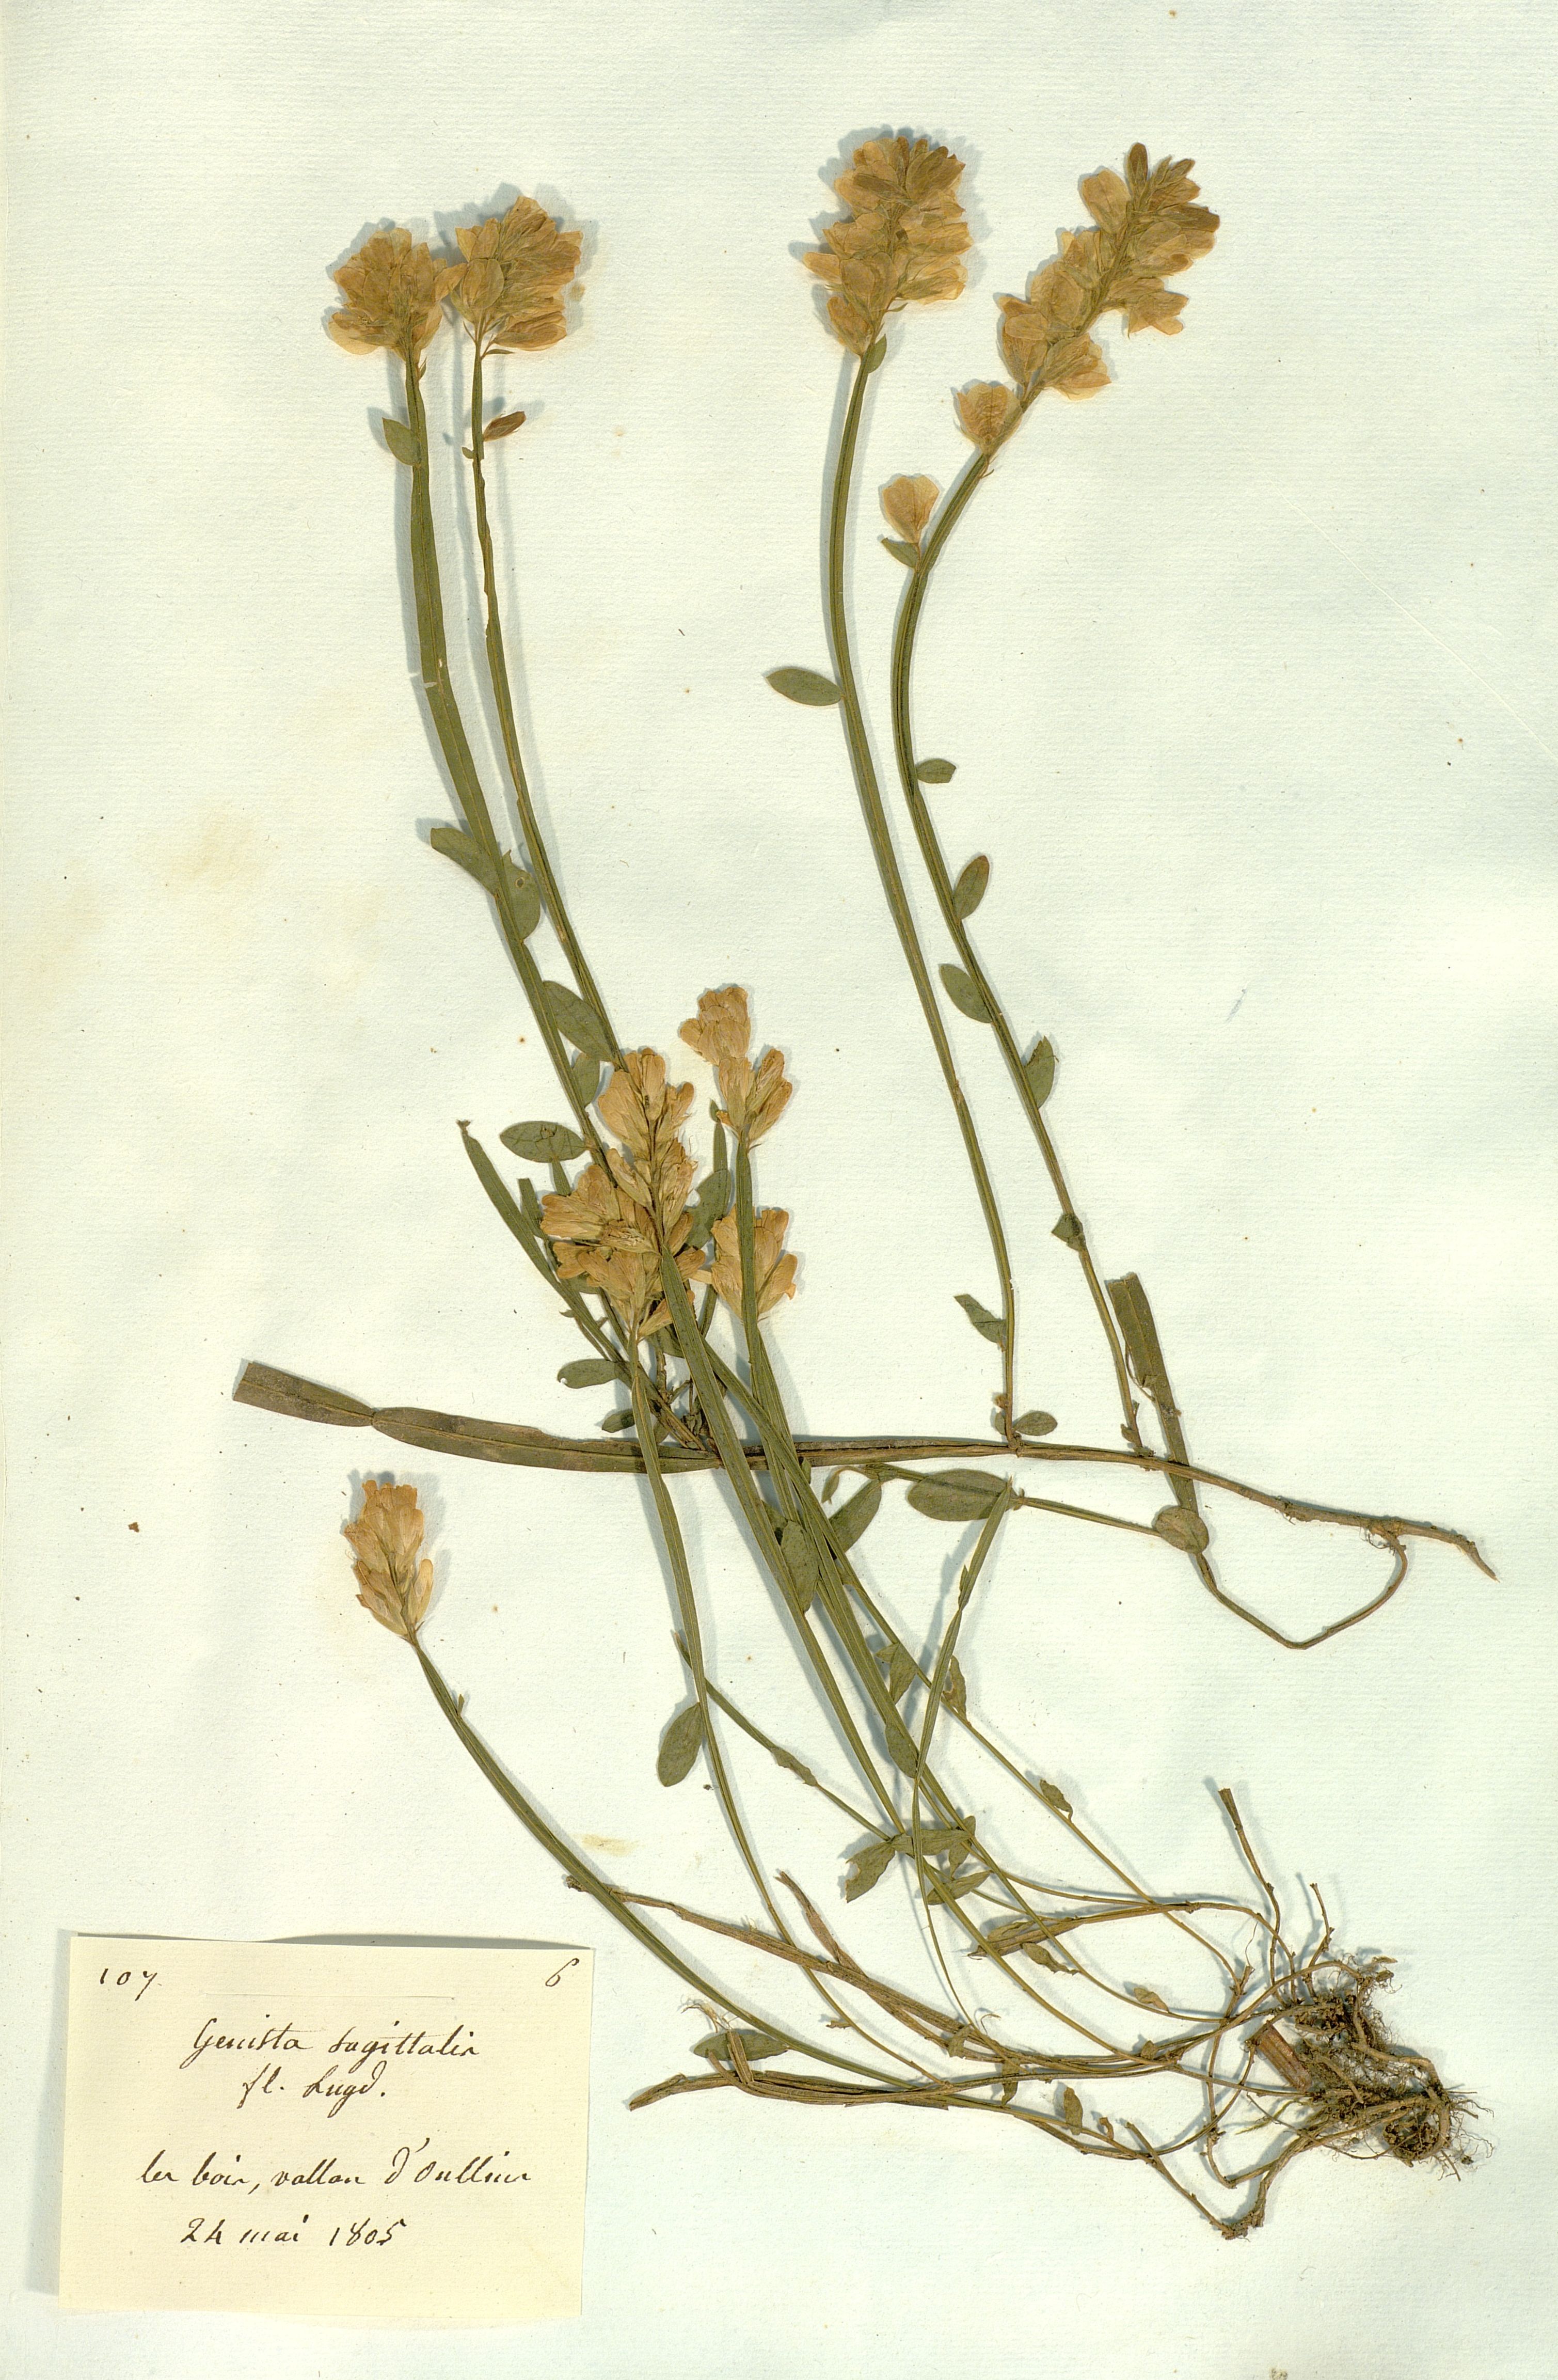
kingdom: Plantae
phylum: Tracheophyta
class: Magnoliopsida
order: Fabales
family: Fabaceae
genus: Genista
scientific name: Genista sagittalis
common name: Winged greenweed
